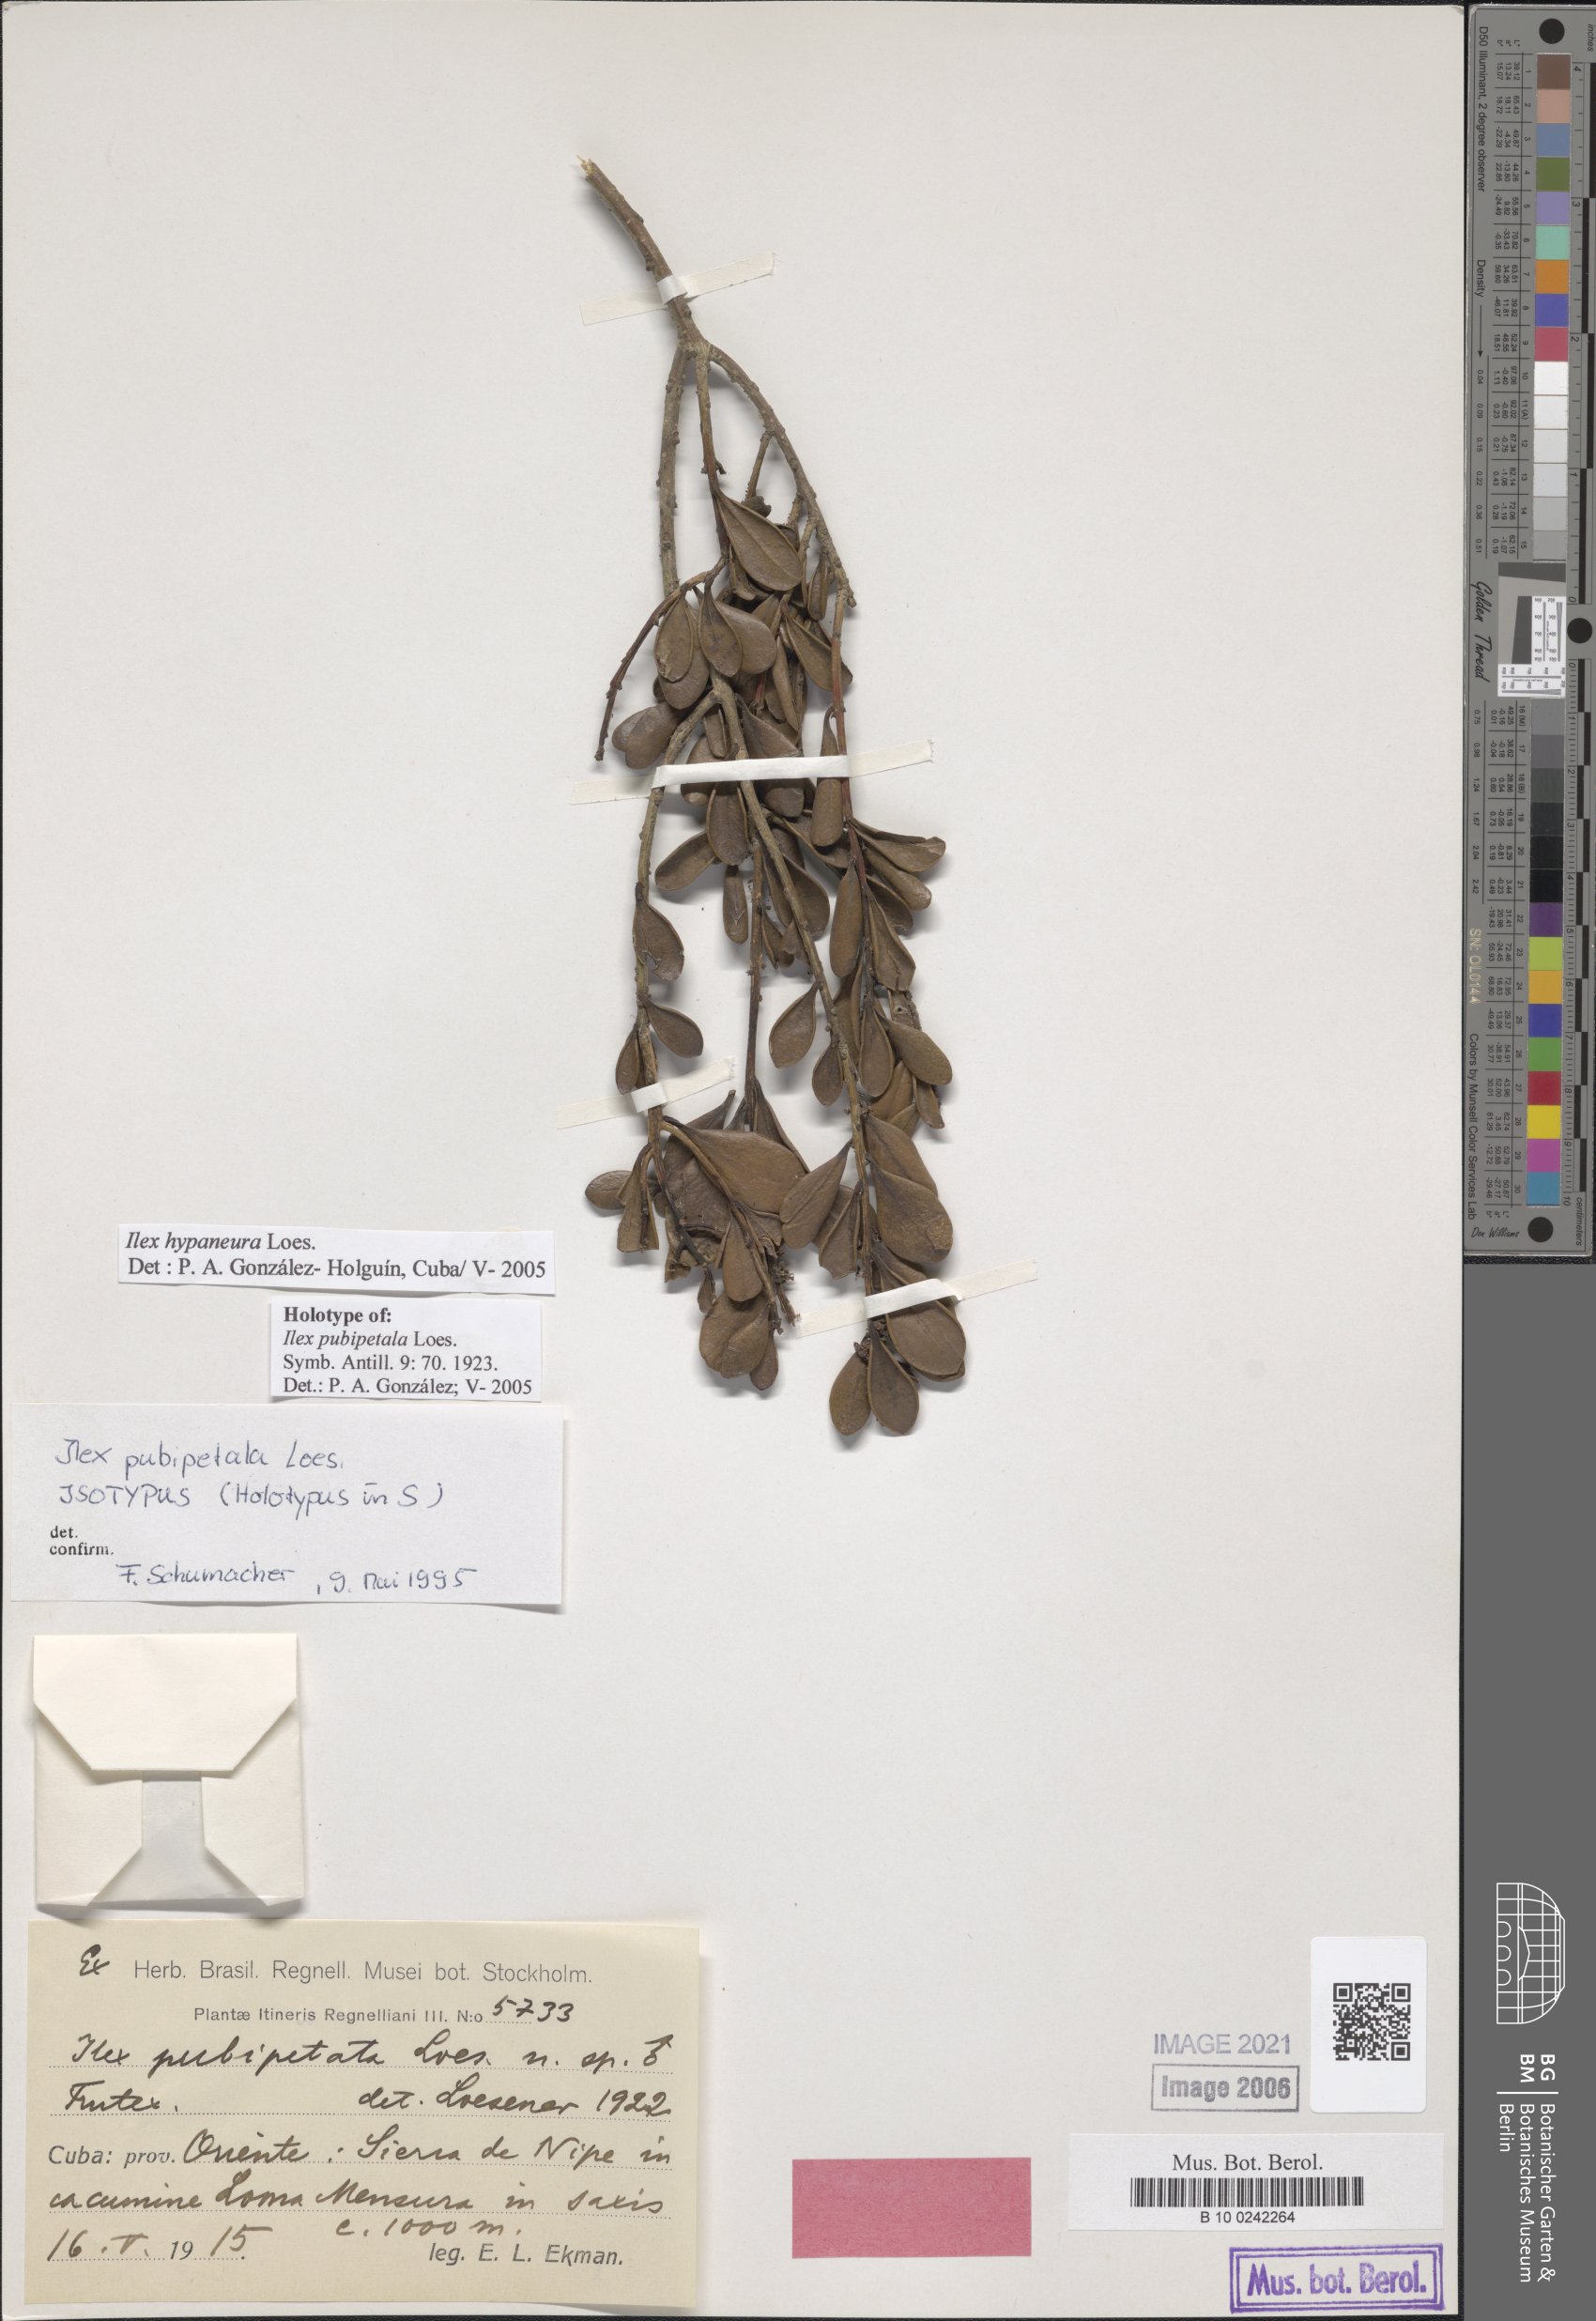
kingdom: Plantae
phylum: Tracheophyta
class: Magnoliopsida
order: Aquifoliales
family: Aquifoliaceae
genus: Ilex
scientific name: Ilex hypaneura
